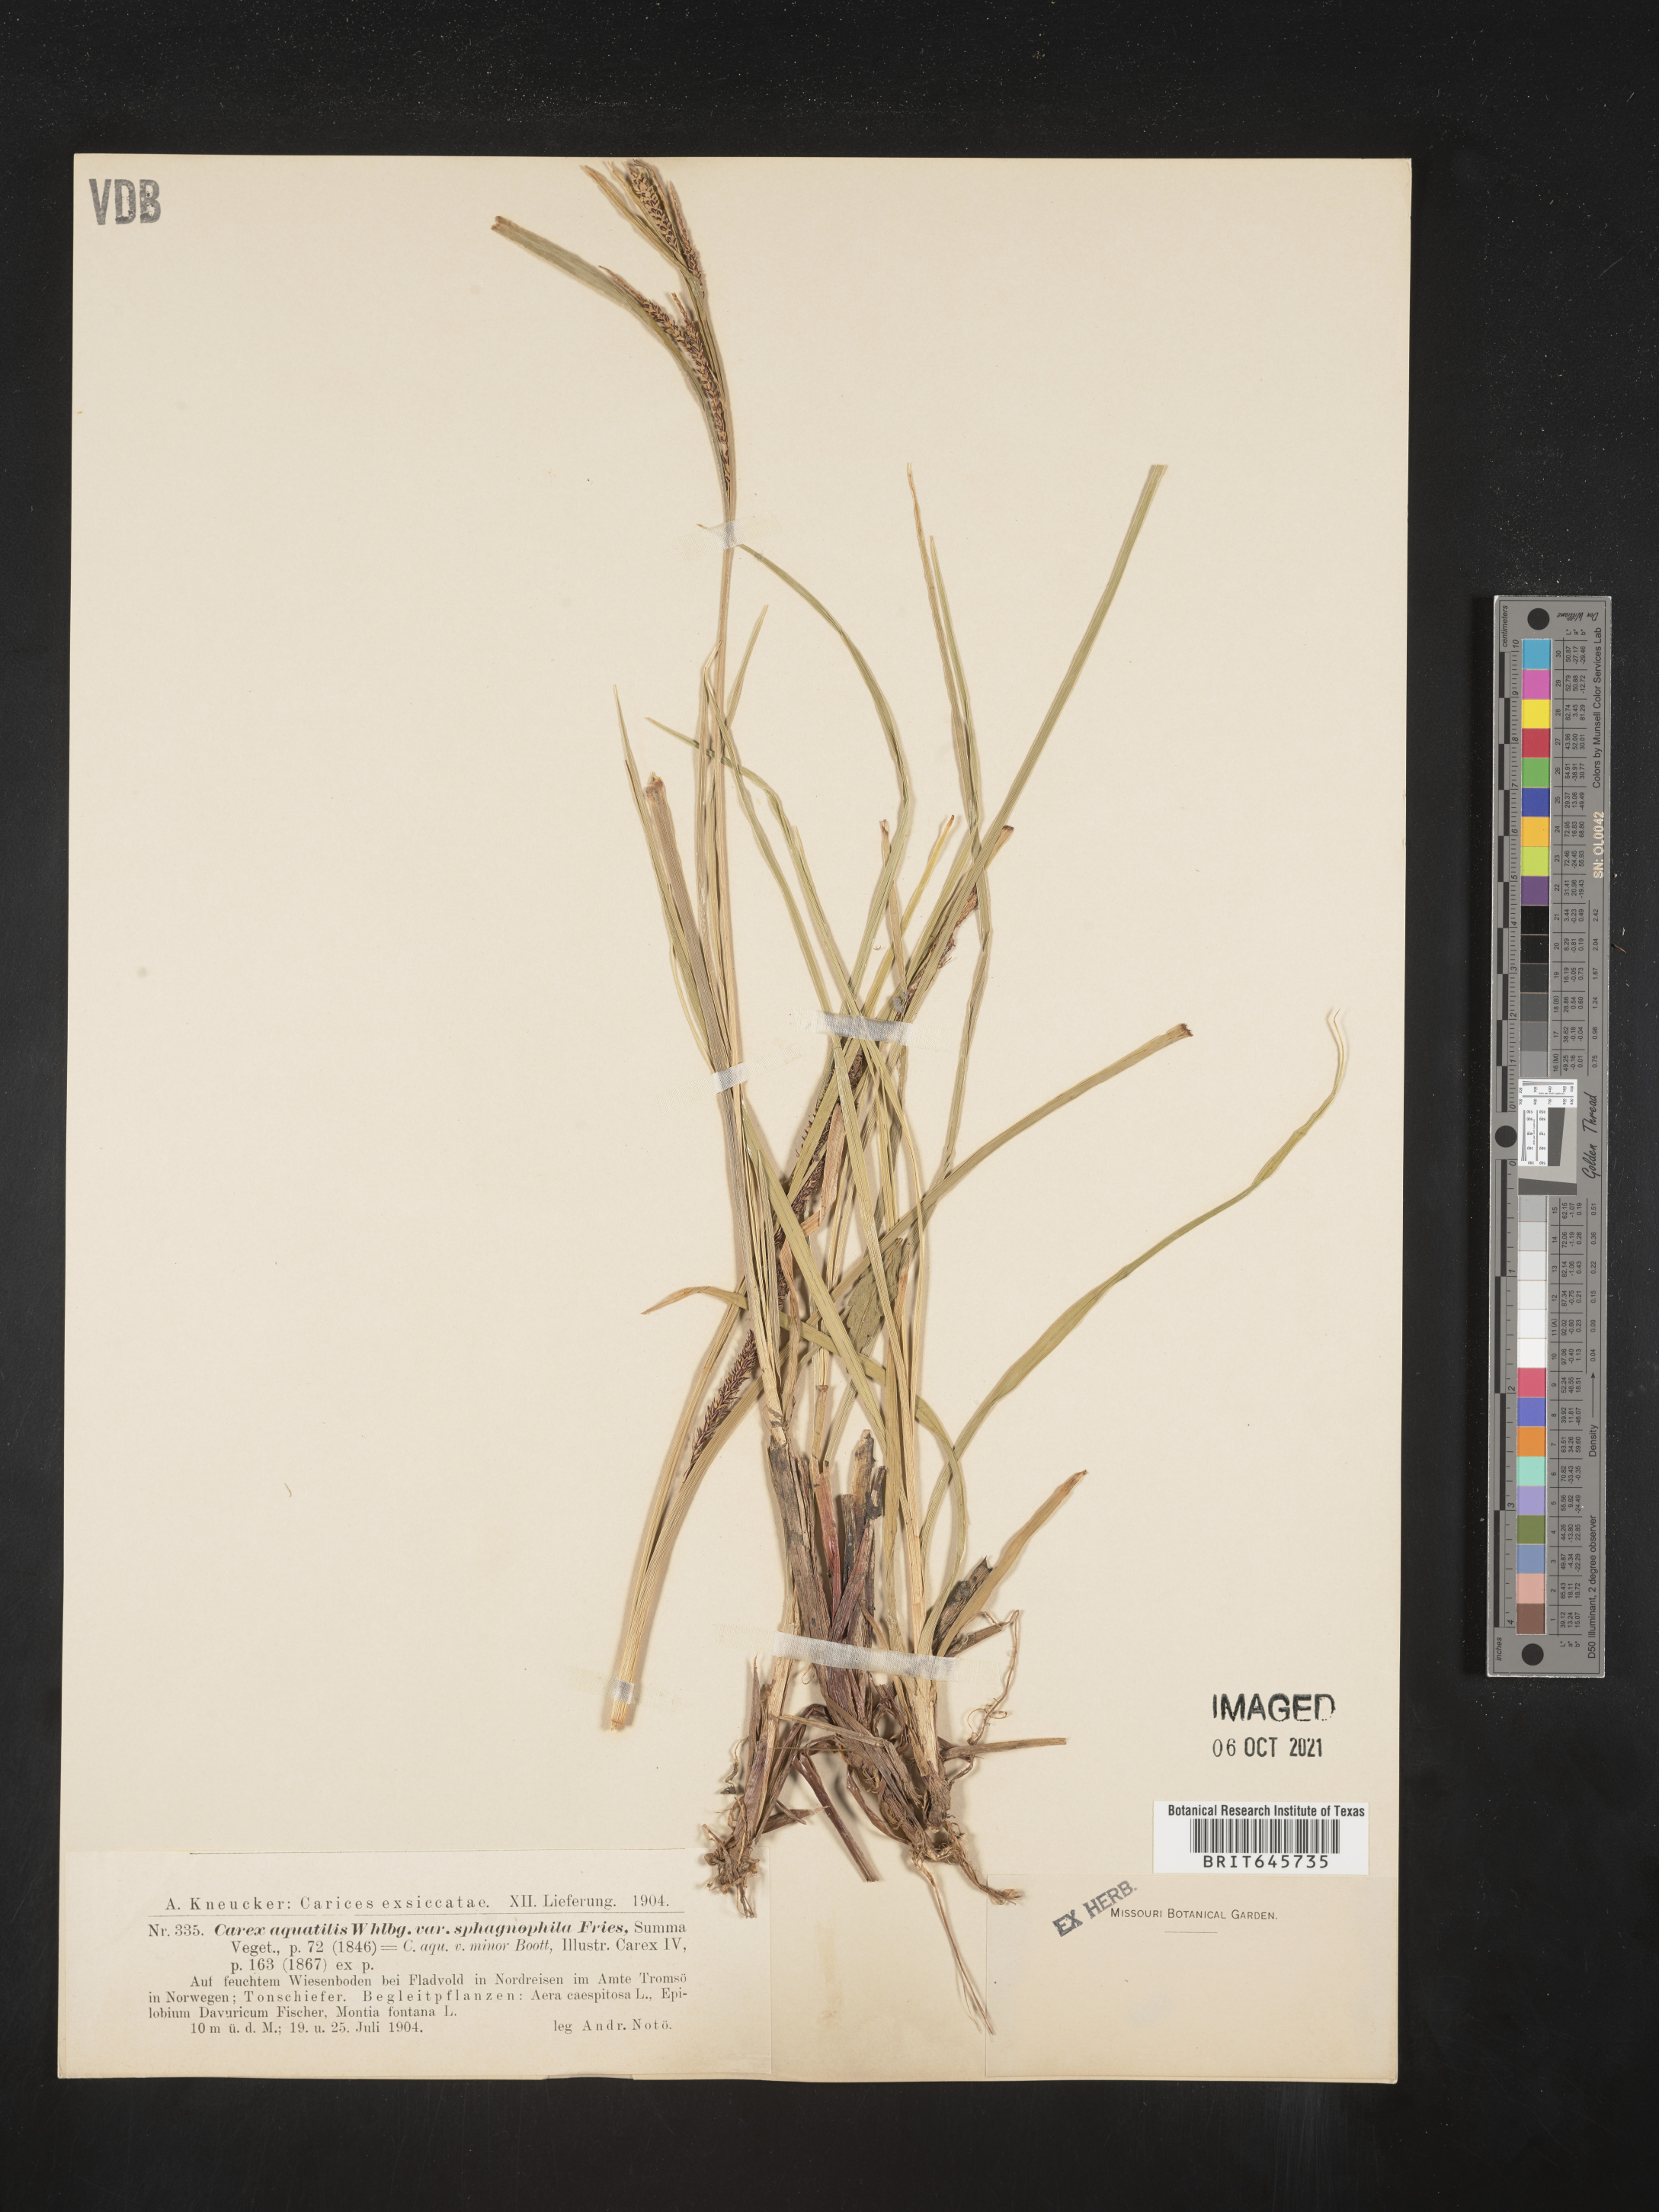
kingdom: Plantae
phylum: Tracheophyta
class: Liliopsida
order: Poales
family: Cyperaceae
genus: Carex
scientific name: Carex
